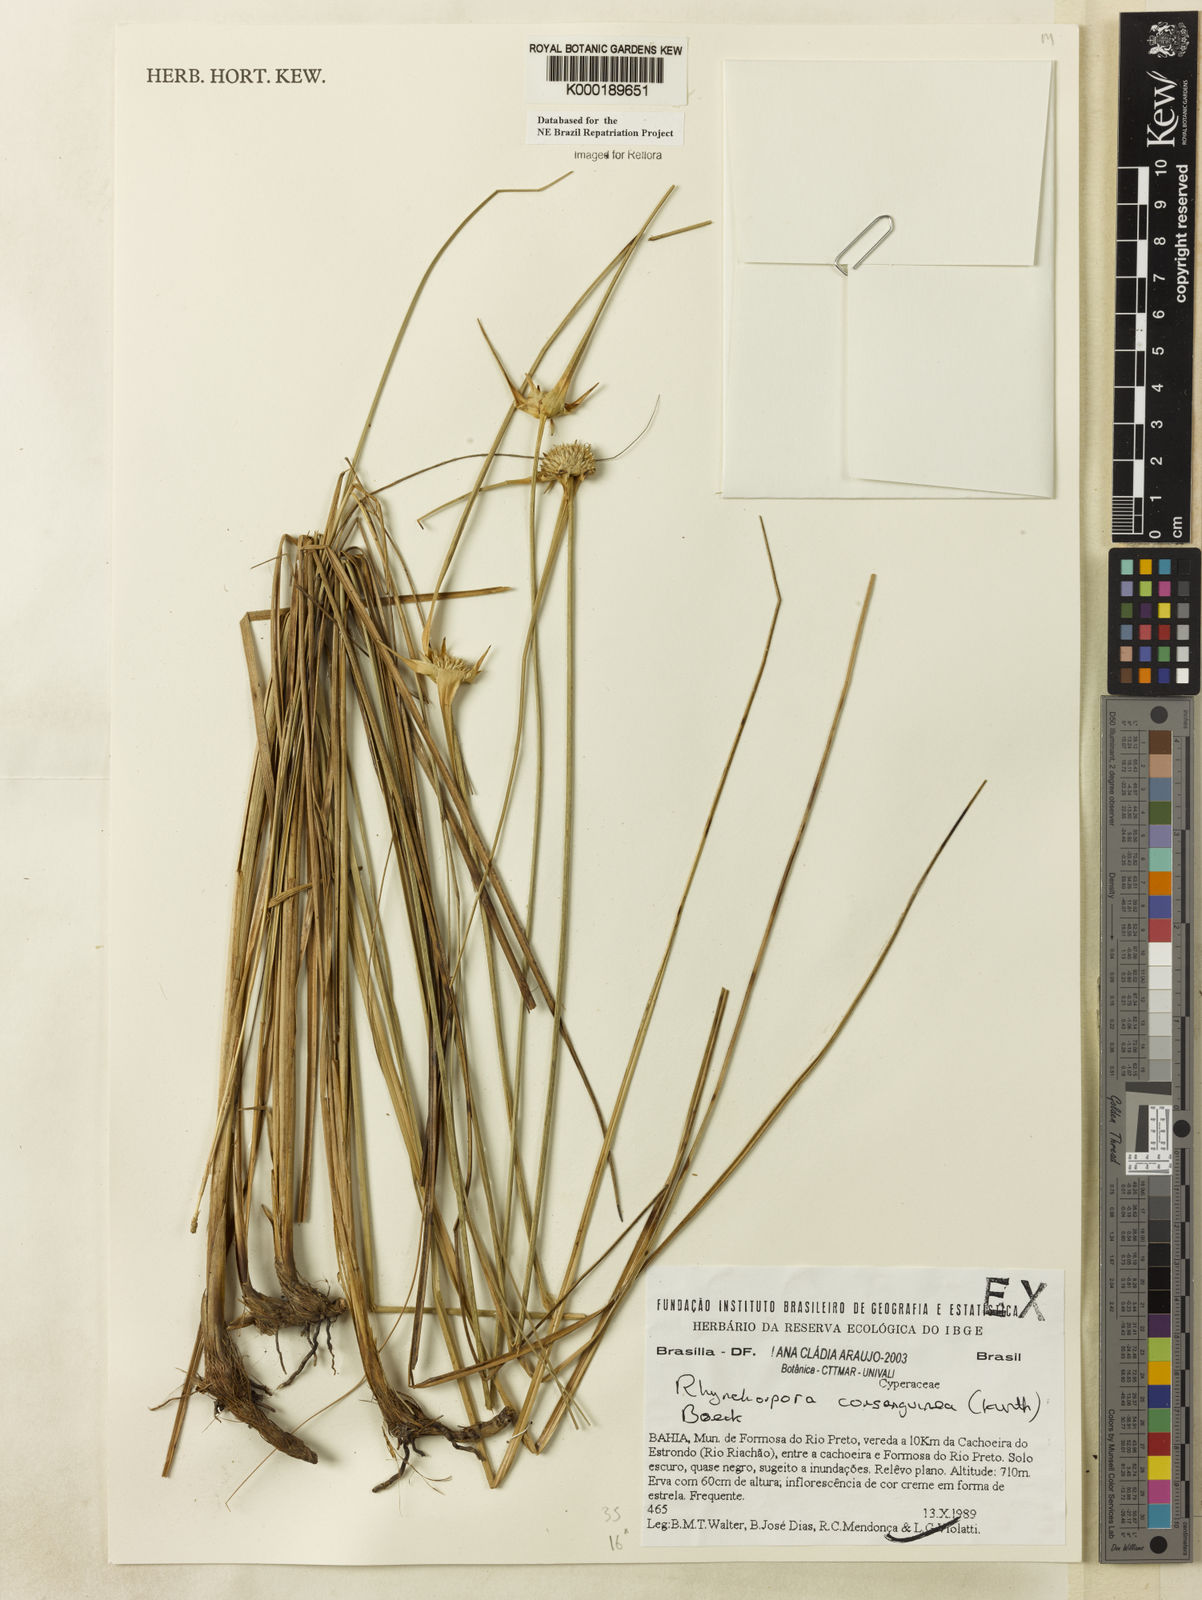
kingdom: Plantae
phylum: Tracheophyta
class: Liliopsida
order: Poales
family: Cyperaceae
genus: Rhynchospora
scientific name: Rhynchospora consanguinea
